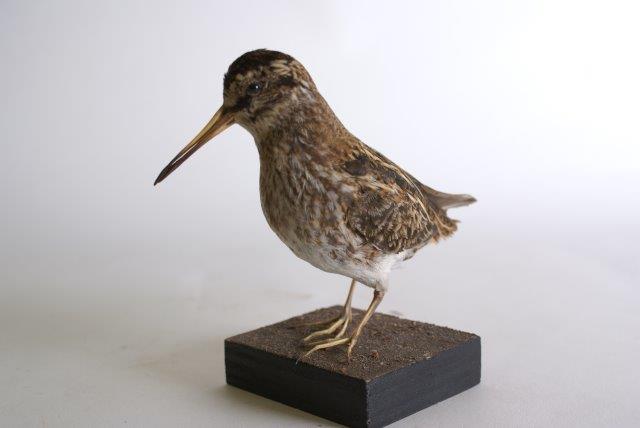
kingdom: Animalia
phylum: Chordata
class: Aves
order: Charadriiformes
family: Scolopacidae
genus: Lymnocryptes
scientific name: Lymnocryptes minimus
